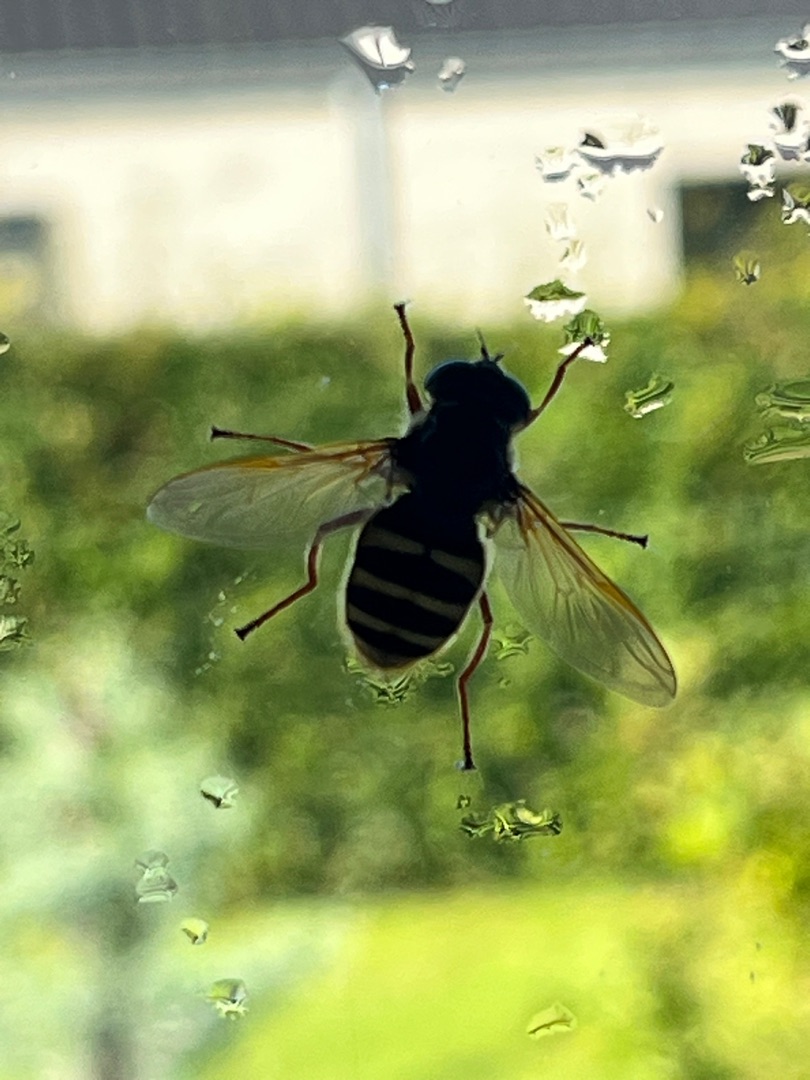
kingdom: Animalia
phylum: Arthropoda
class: Insecta
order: Diptera
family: Syrphidae
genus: Sericomyia
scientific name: Sericomyia silentis
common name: Tørve-silkesvirreflue
